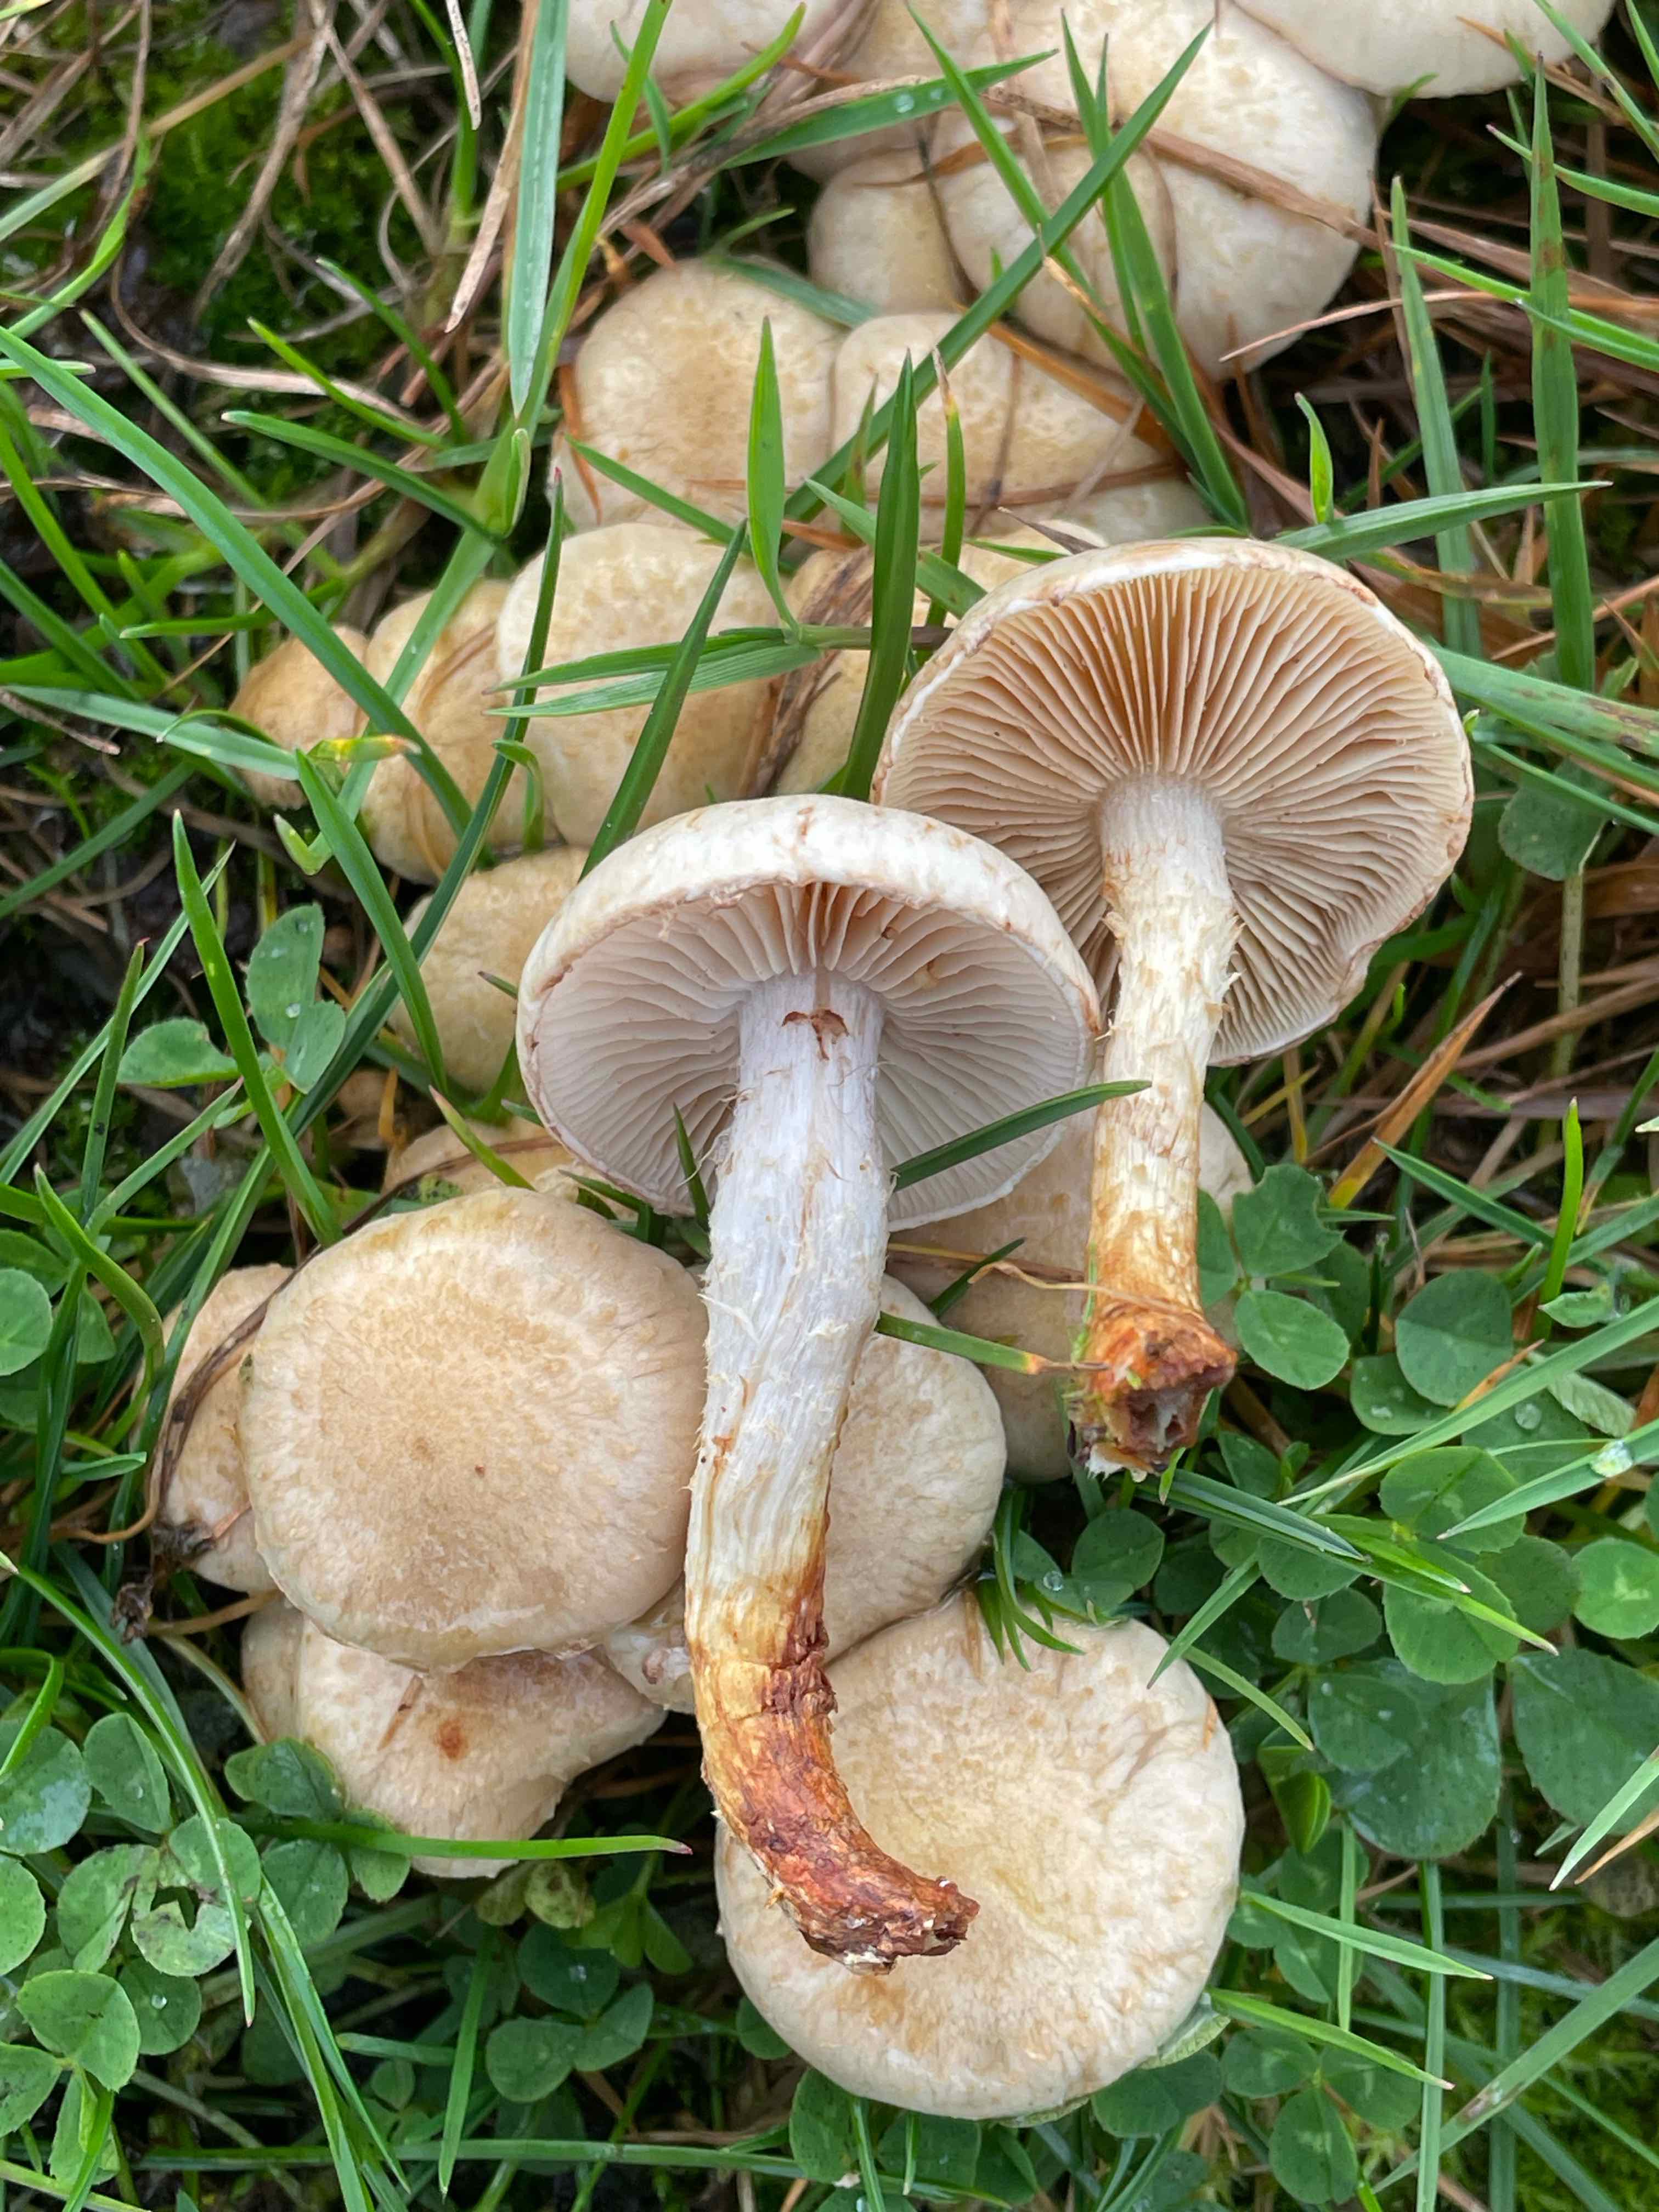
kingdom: Fungi
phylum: Basidiomycota
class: Agaricomycetes
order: Agaricales
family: Strophariaceae
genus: Pholiota
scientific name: Pholiota gummosa
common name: grøngul skælhat
